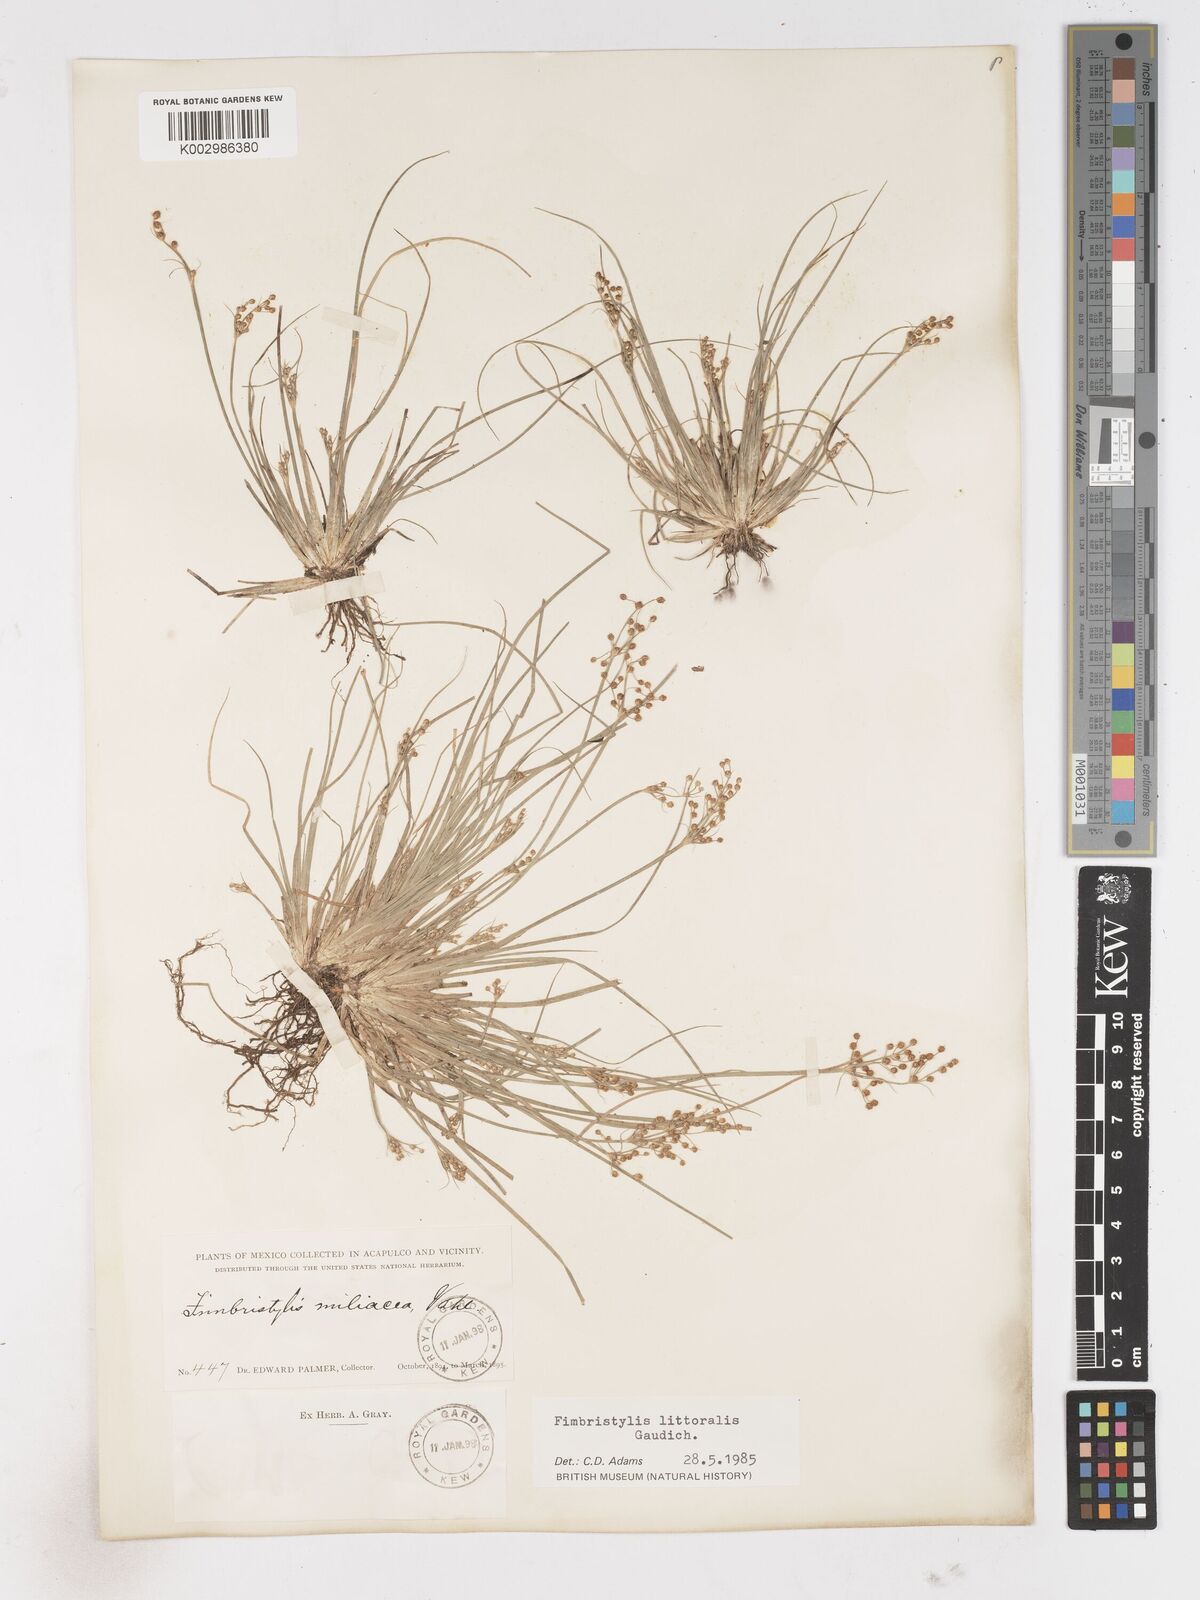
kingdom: Plantae
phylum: Tracheophyta
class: Liliopsida
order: Poales
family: Cyperaceae
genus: Fimbristylis
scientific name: Fimbristylis littoralis
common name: Fimbry
